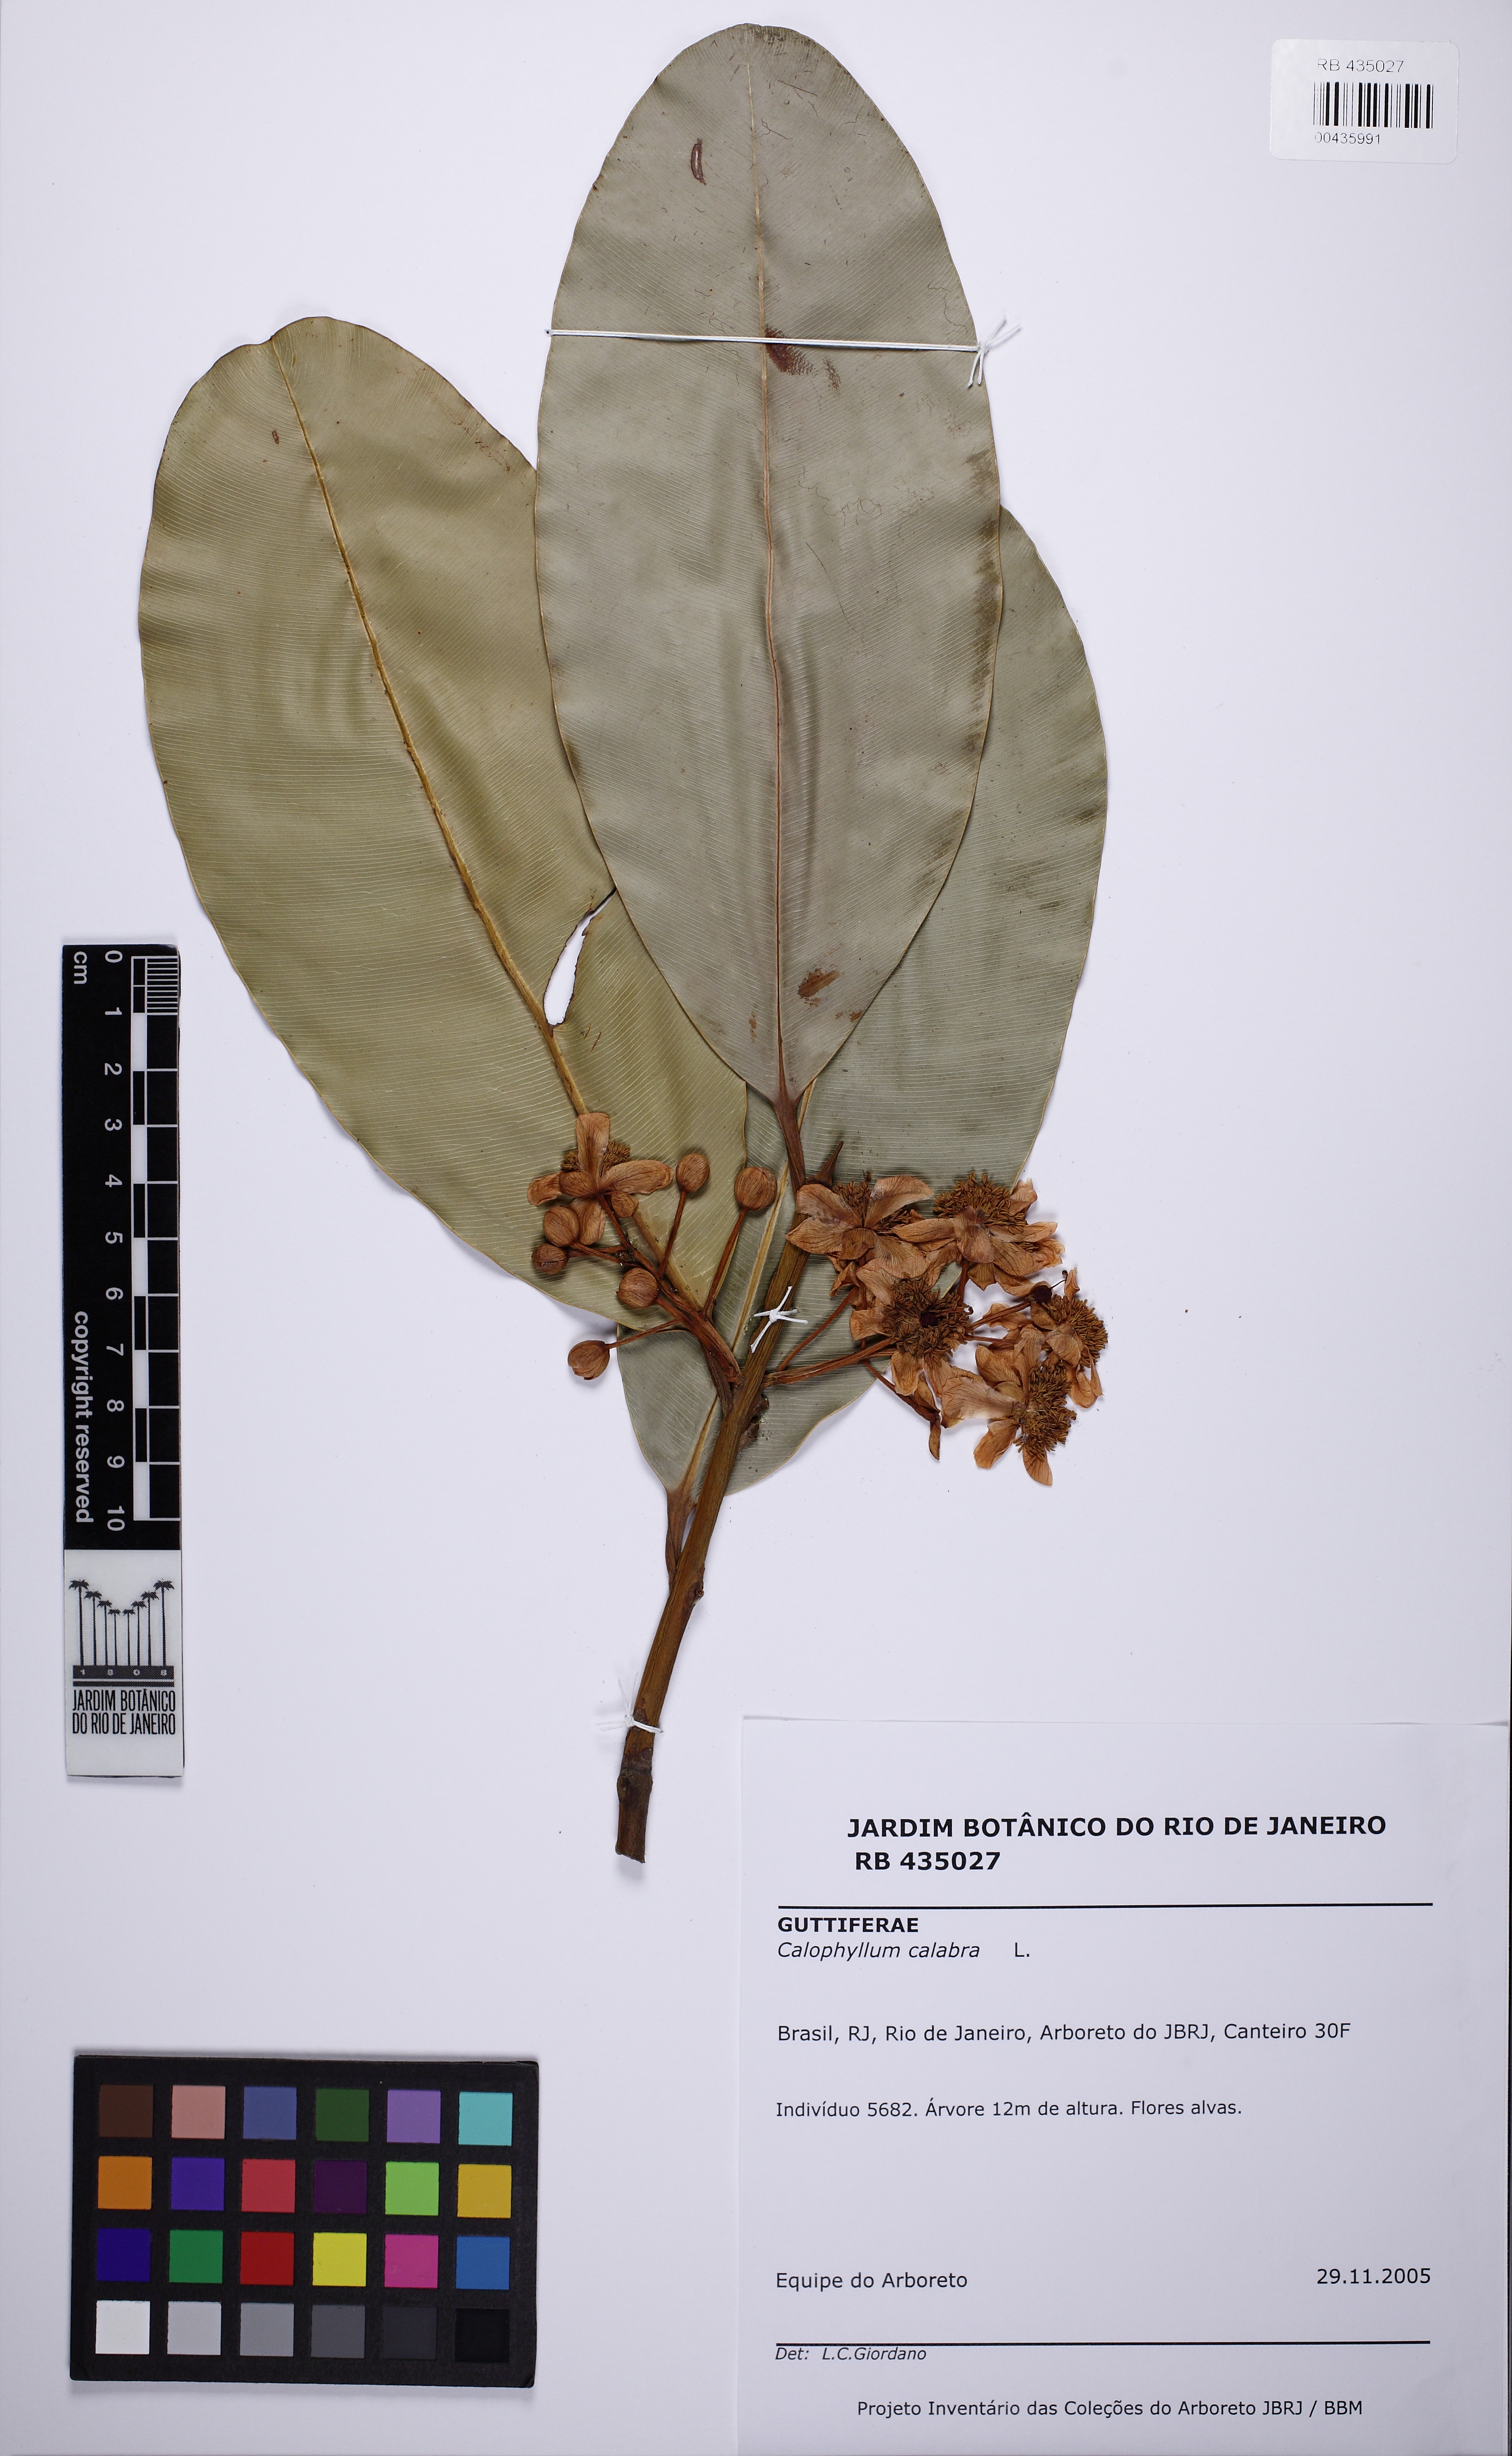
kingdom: Plantae
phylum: Tracheophyta
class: Magnoliopsida
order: Malpighiales
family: Calophyllaceae
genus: Calophyllum
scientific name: Calophyllum calaba
